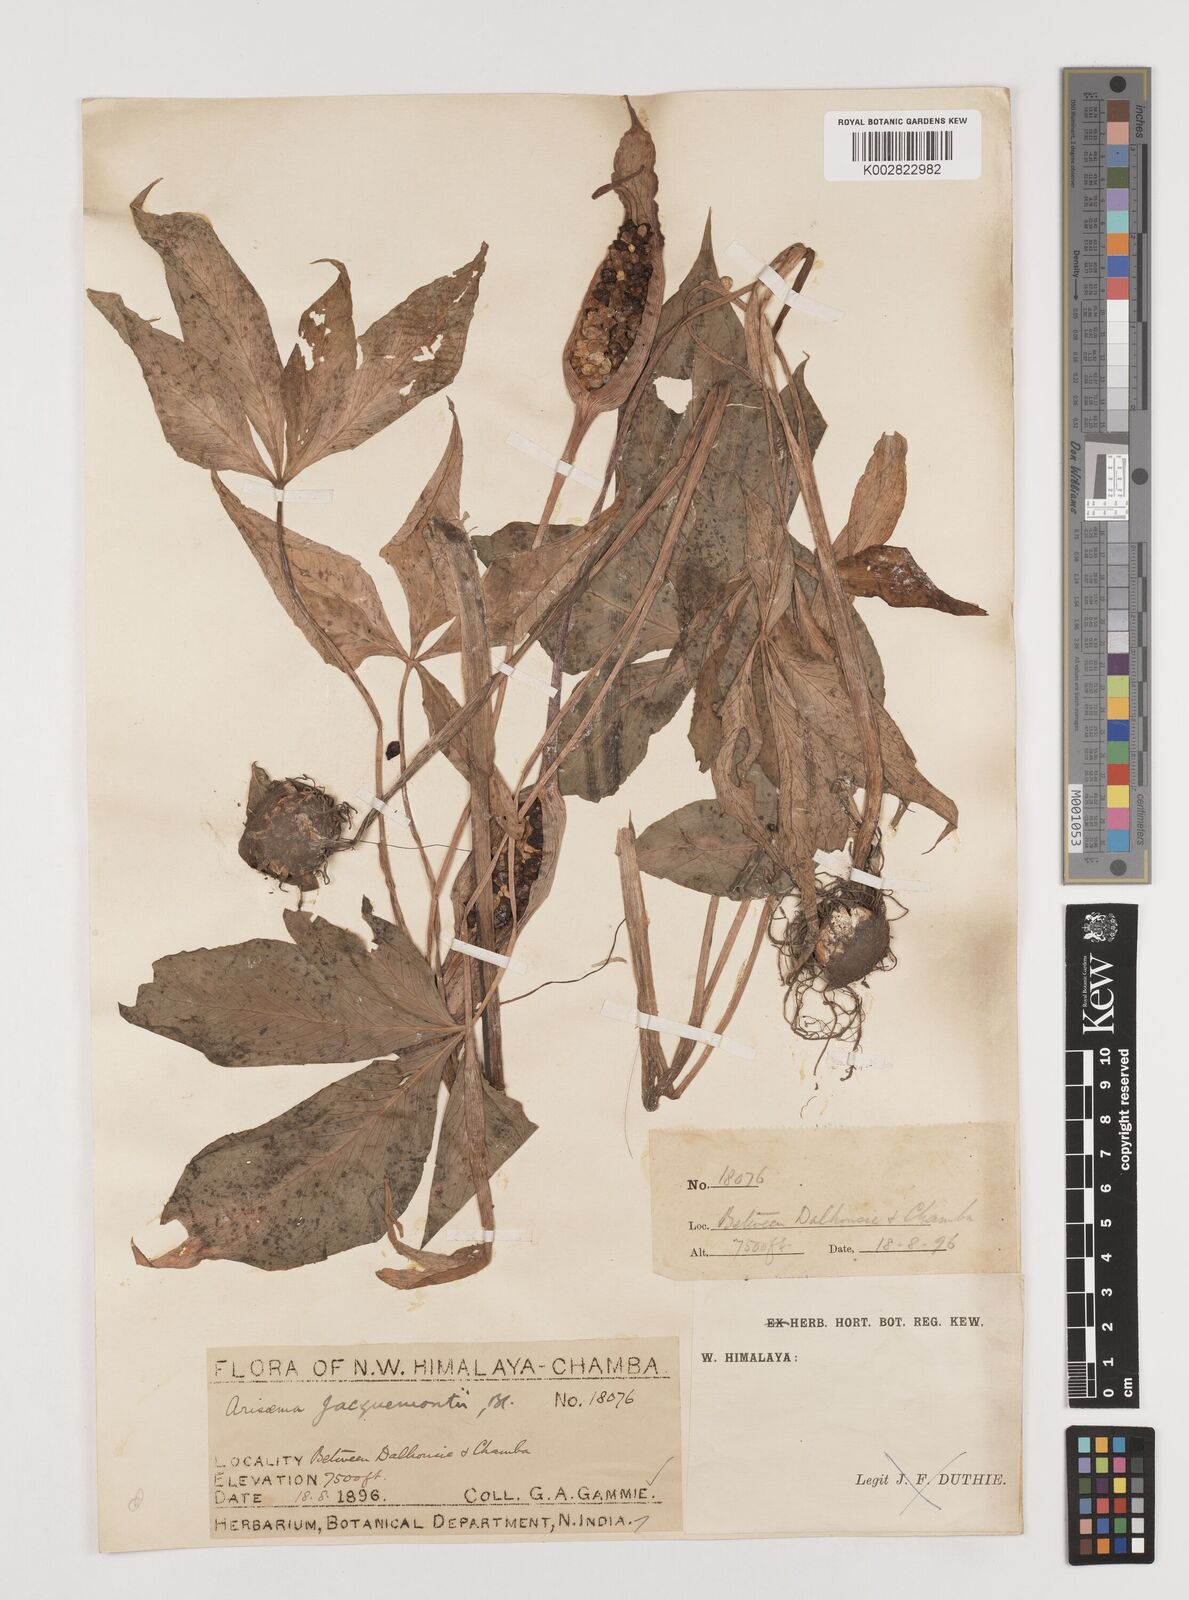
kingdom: Plantae
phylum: Tracheophyta
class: Liliopsida
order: Alismatales
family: Araceae
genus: Arisaema
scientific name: Arisaema jacquemontii
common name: Jacquemont's cobra-lily
